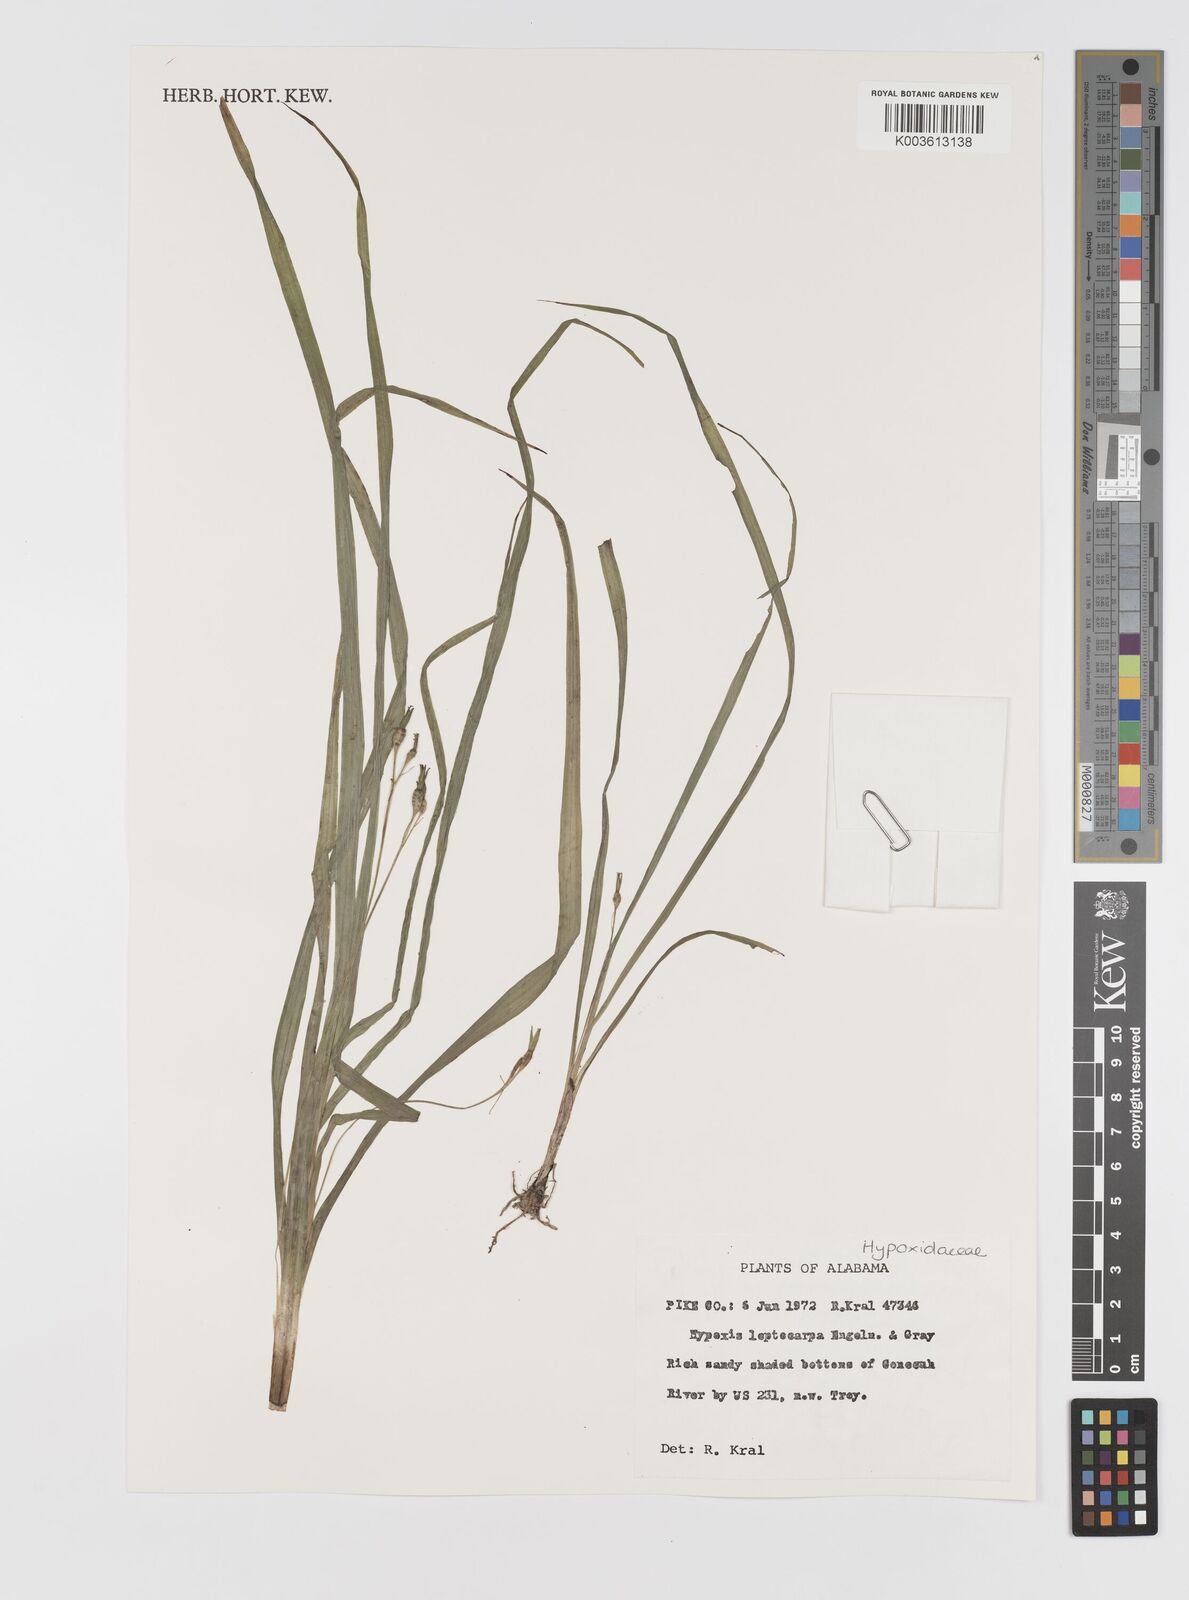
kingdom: Plantae
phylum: Tracheophyta
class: Liliopsida
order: Asparagales
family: Hypoxidaceae
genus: Hypoxis
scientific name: Hypoxis curtissii
